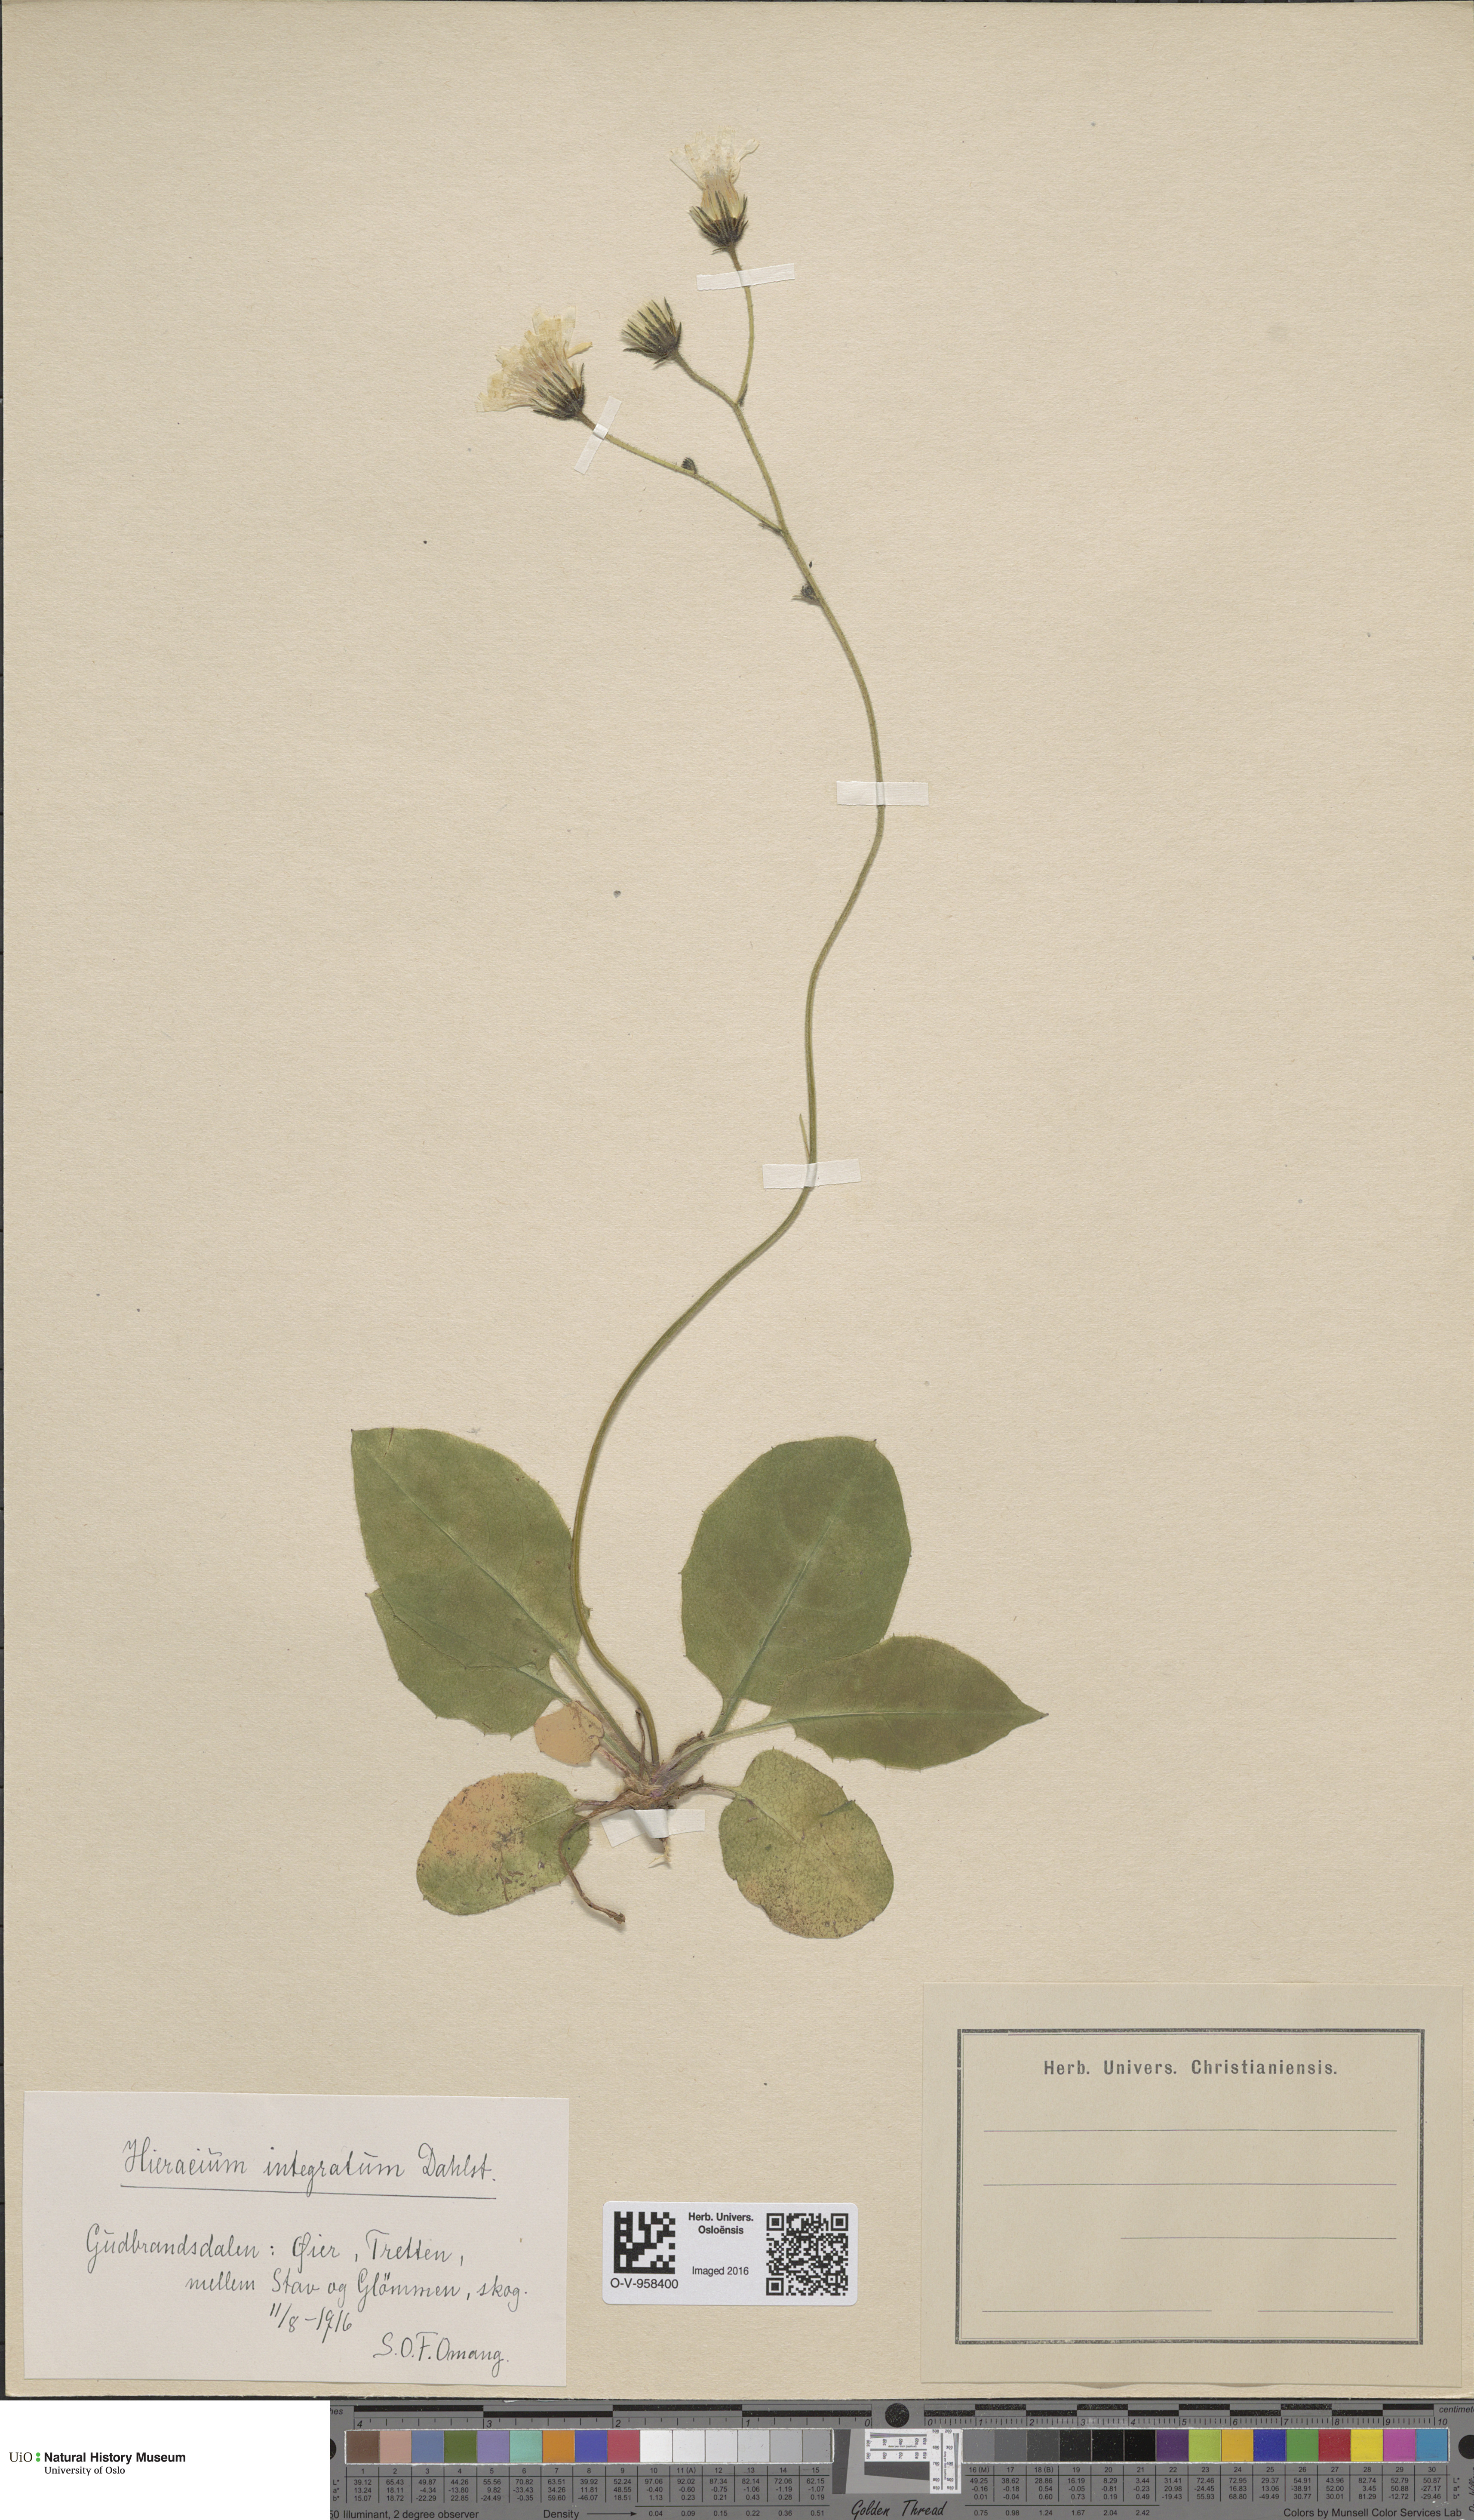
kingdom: Plantae
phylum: Tracheophyta
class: Magnoliopsida
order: Asterales
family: Asteraceae
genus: Hieracium
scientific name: Hieracium murorum
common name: Wall hawkweed
